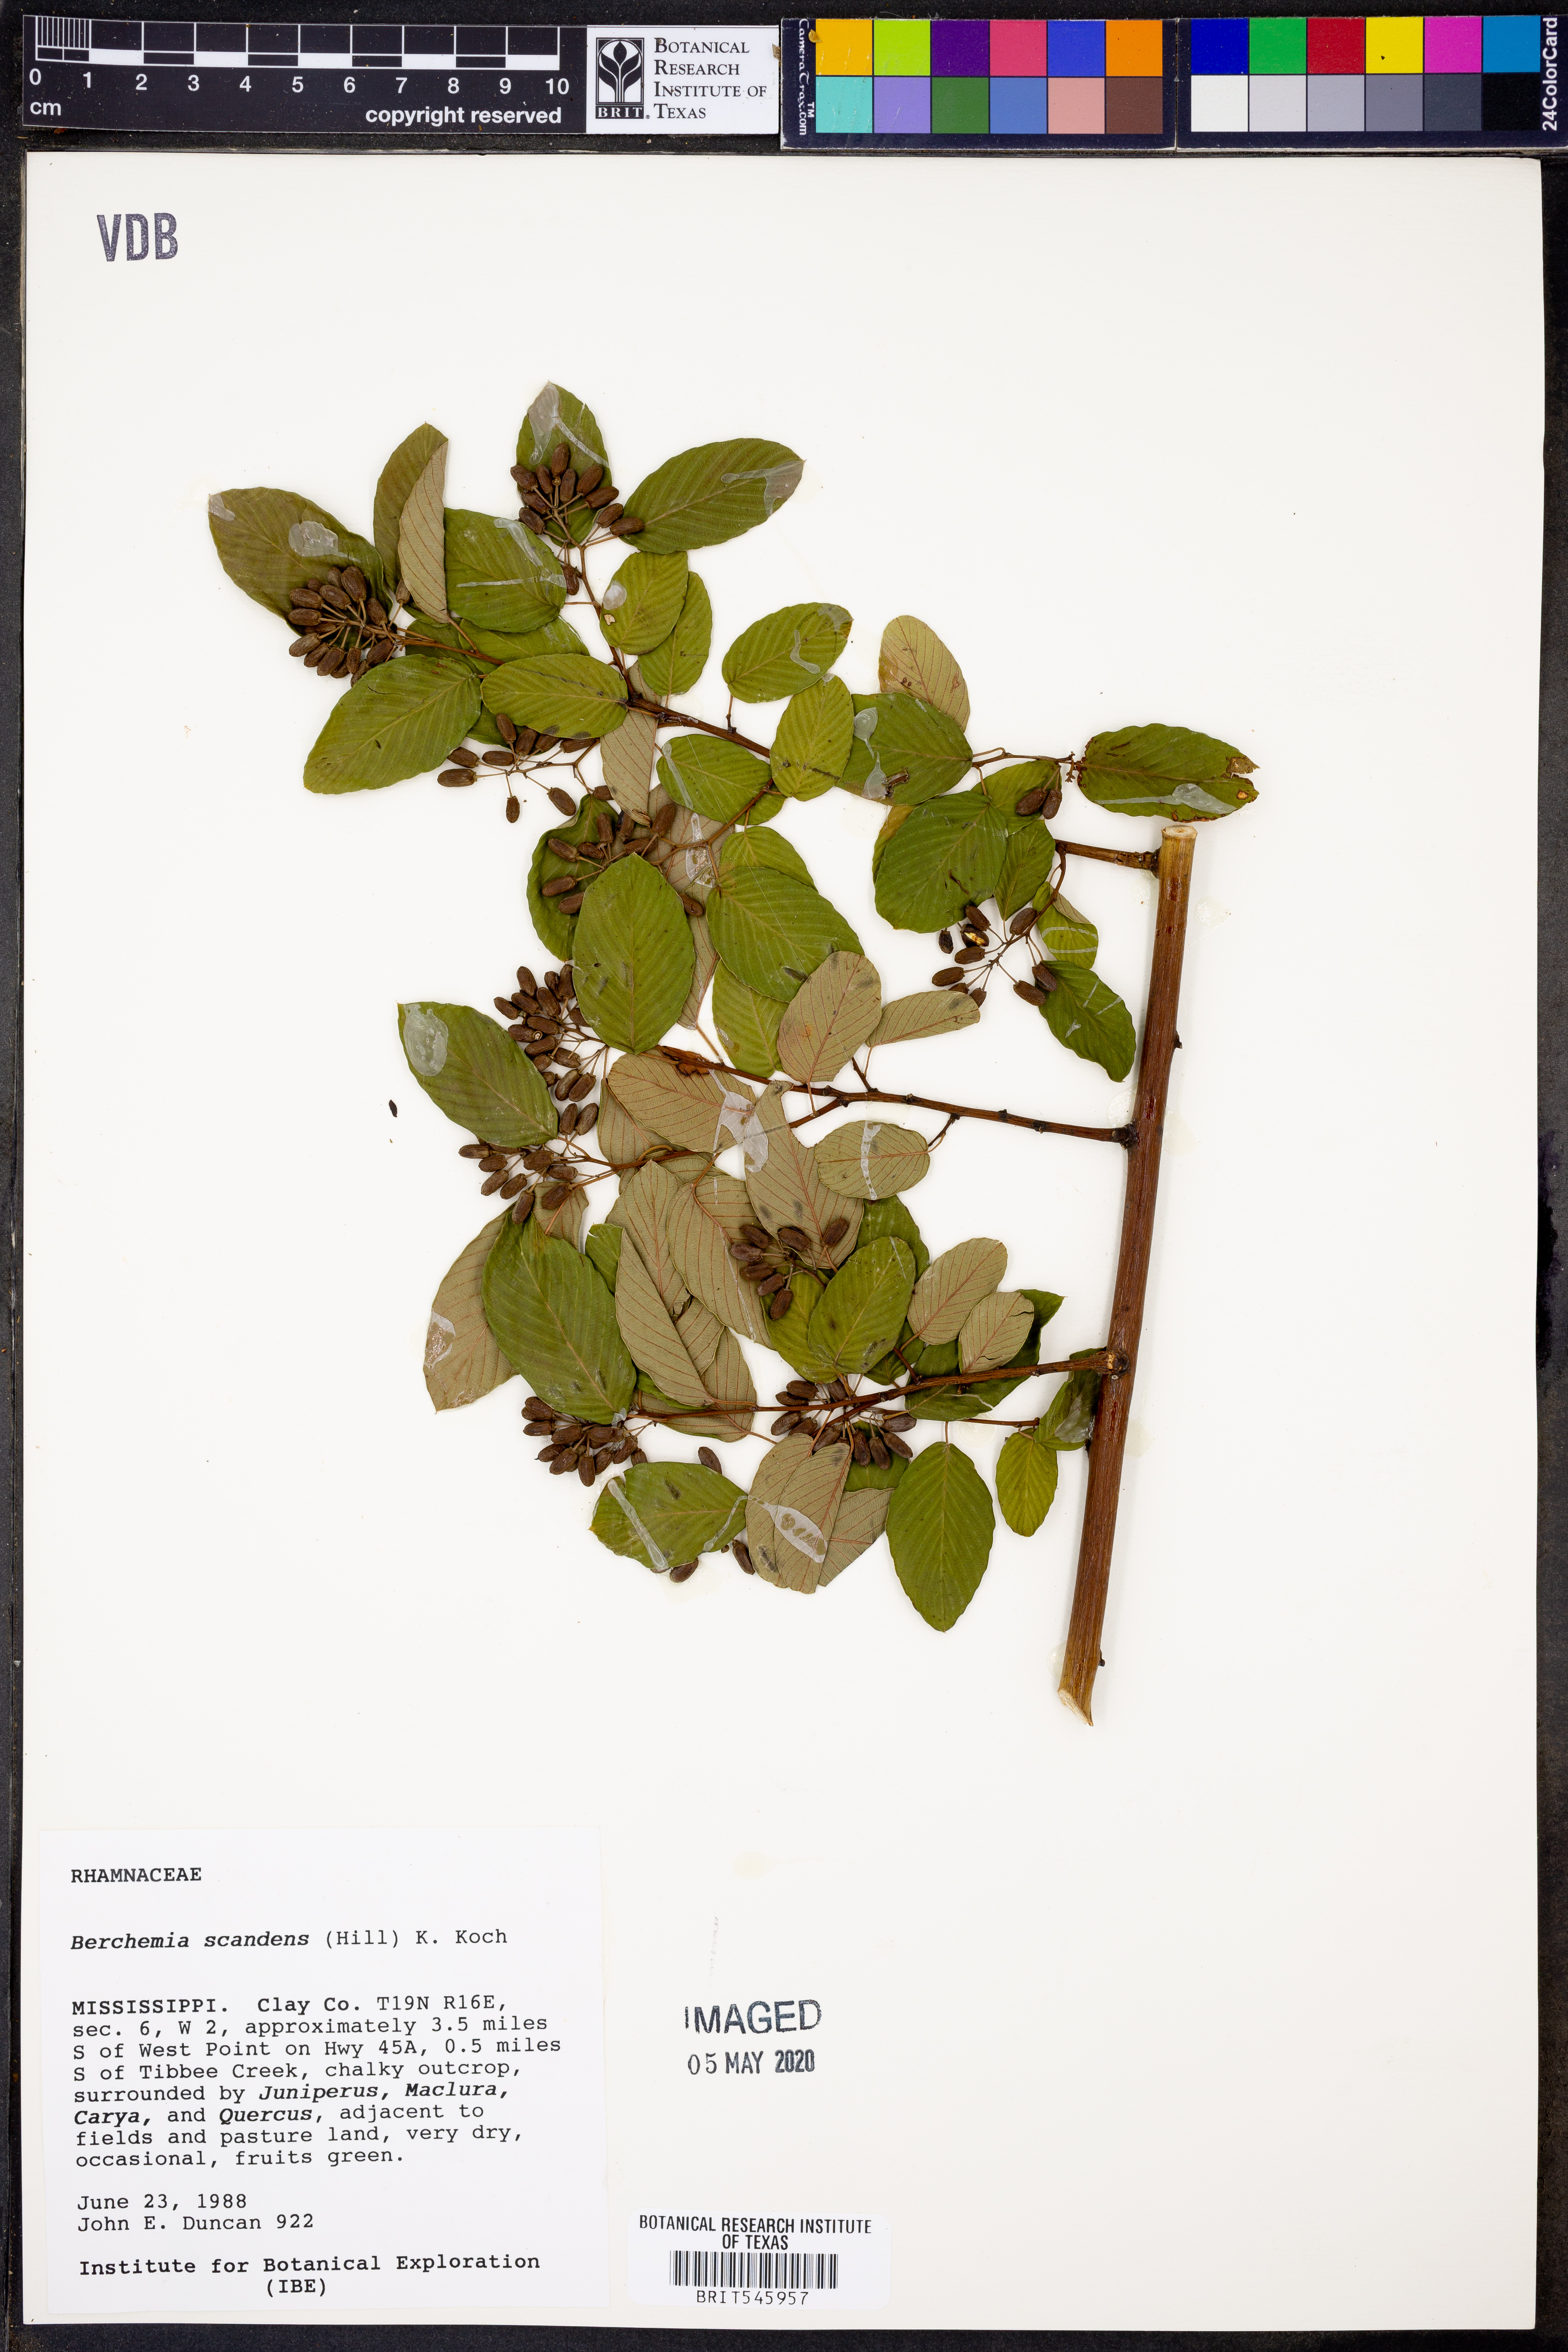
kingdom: Plantae
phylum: Tracheophyta
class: Magnoliopsida
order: Rosales
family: Rhamnaceae
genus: Berchemia
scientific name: Berchemia scandens
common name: Supplejack
